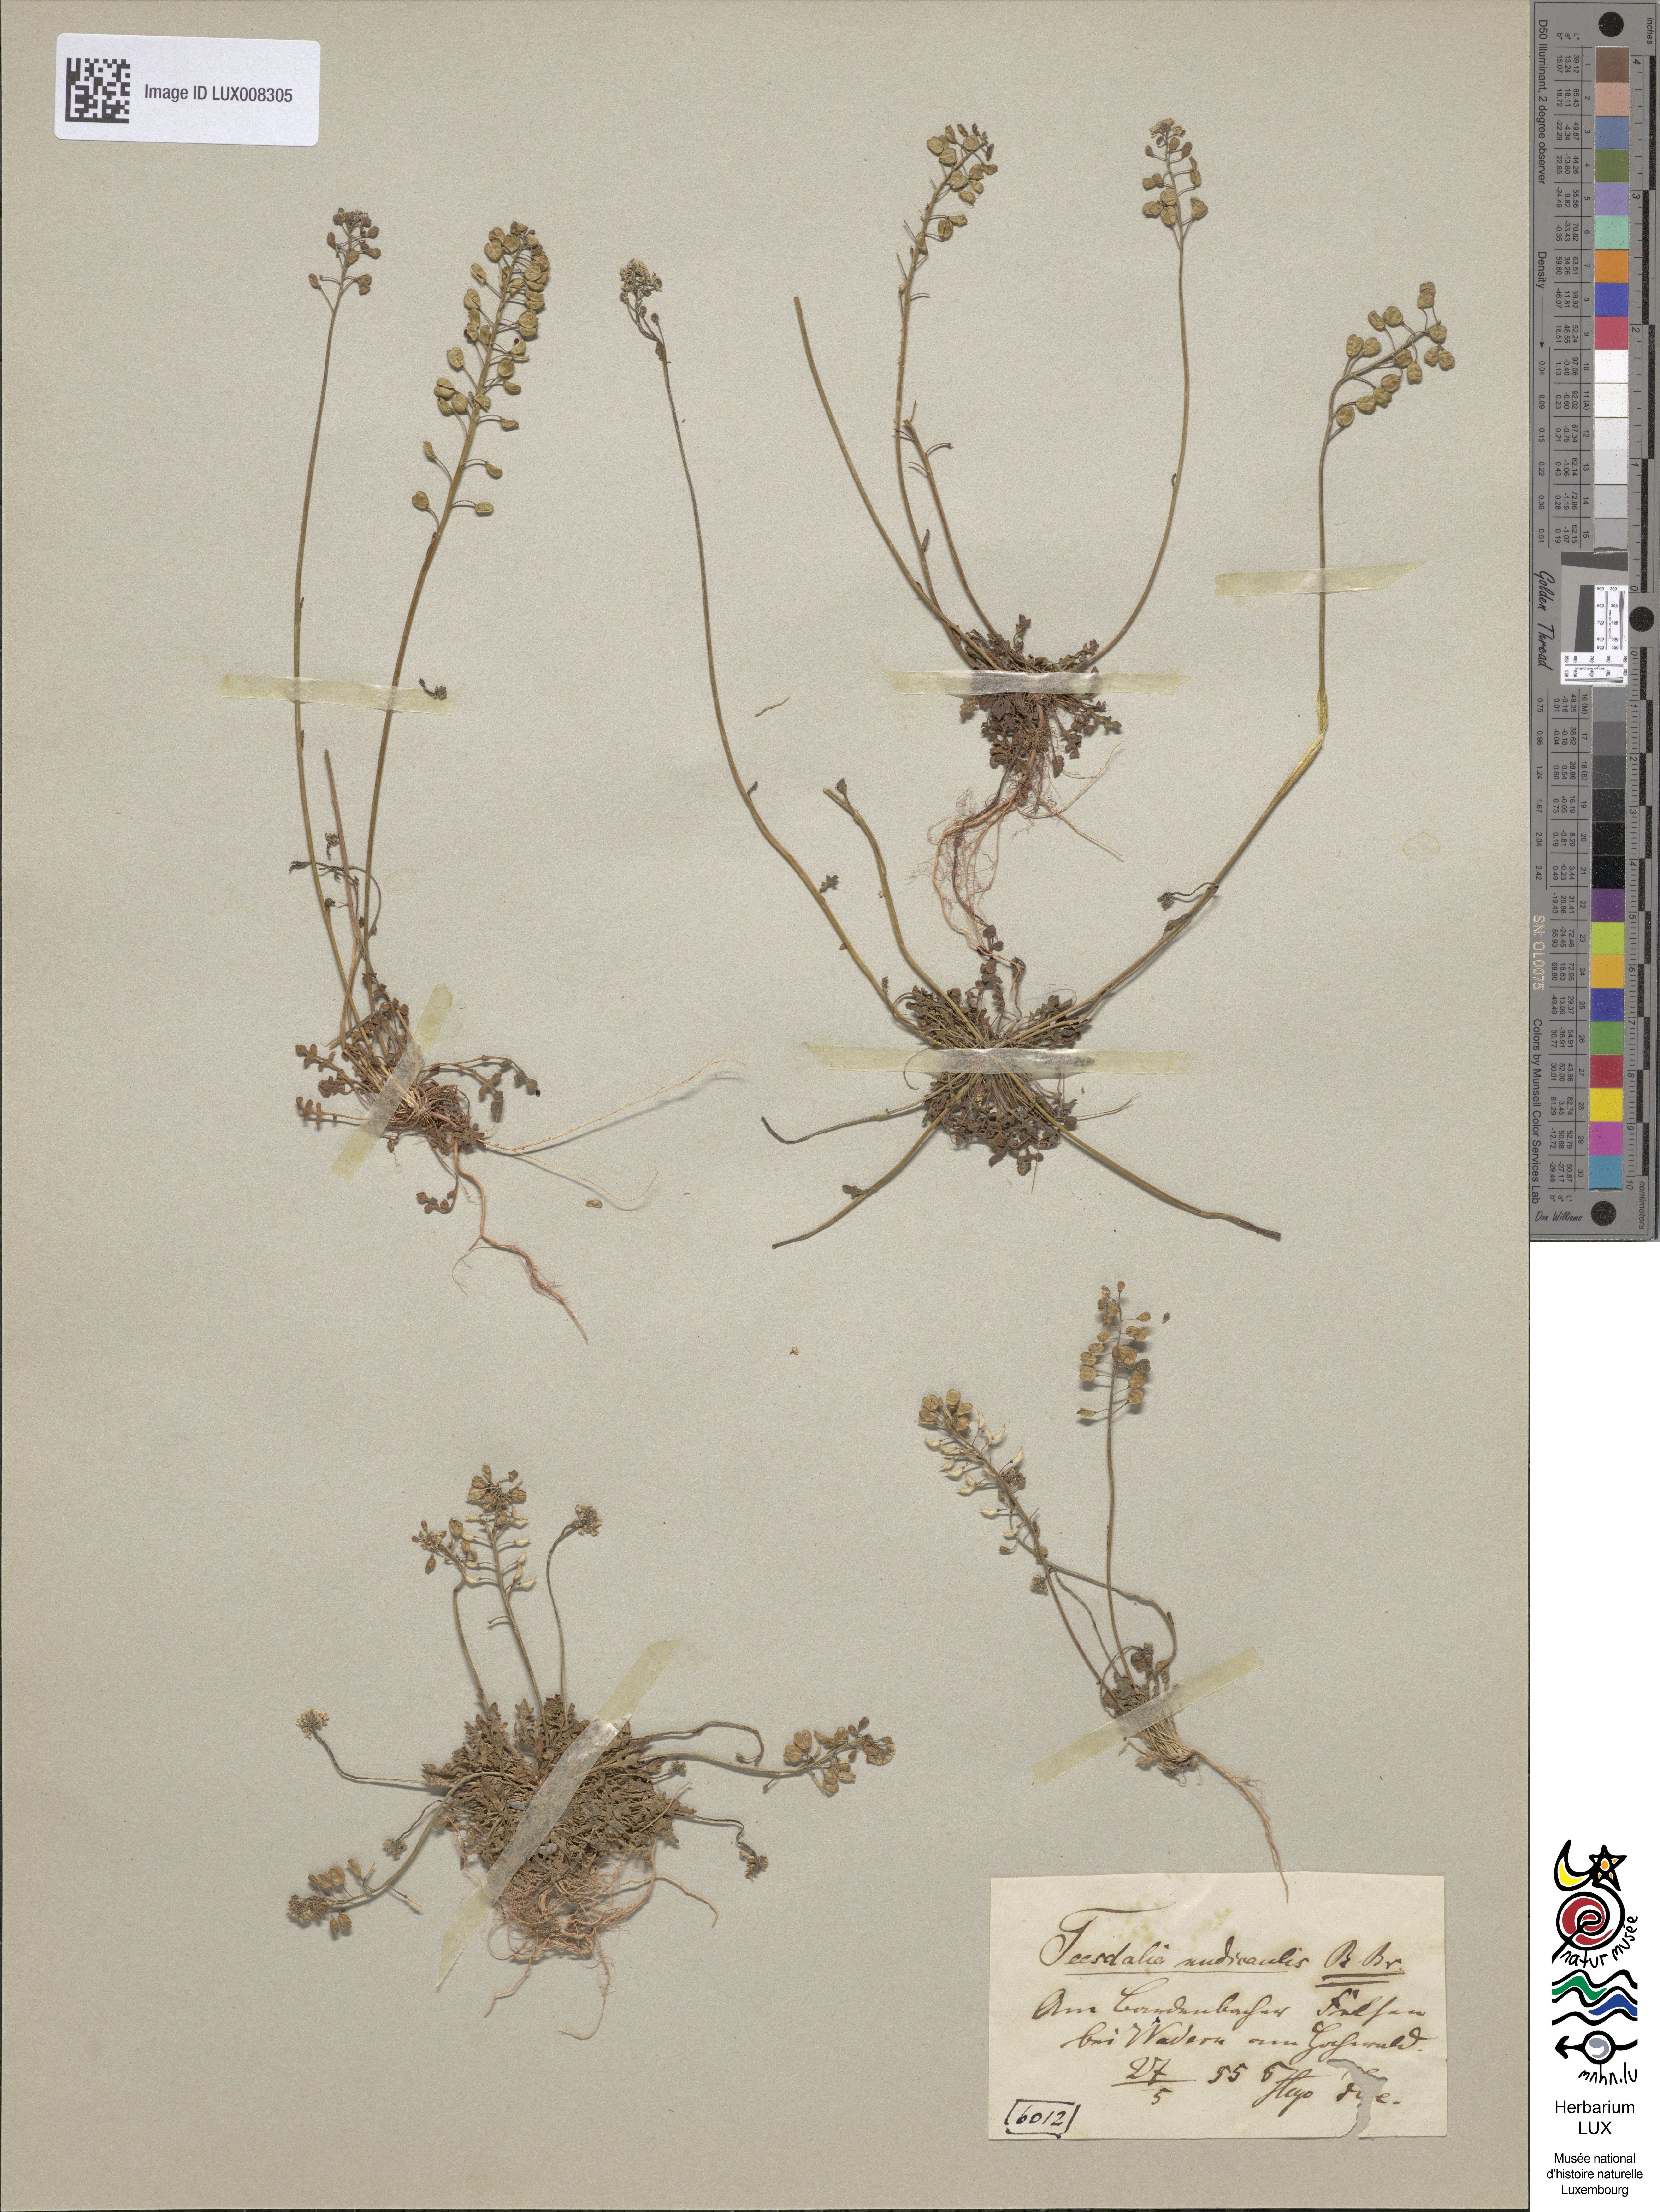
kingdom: Plantae
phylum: Tracheophyta
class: Magnoliopsida
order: Brassicales
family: Brassicaceae
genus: Teesdalia
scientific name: Teesdalia nudicaulis
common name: Shepherd's cress
